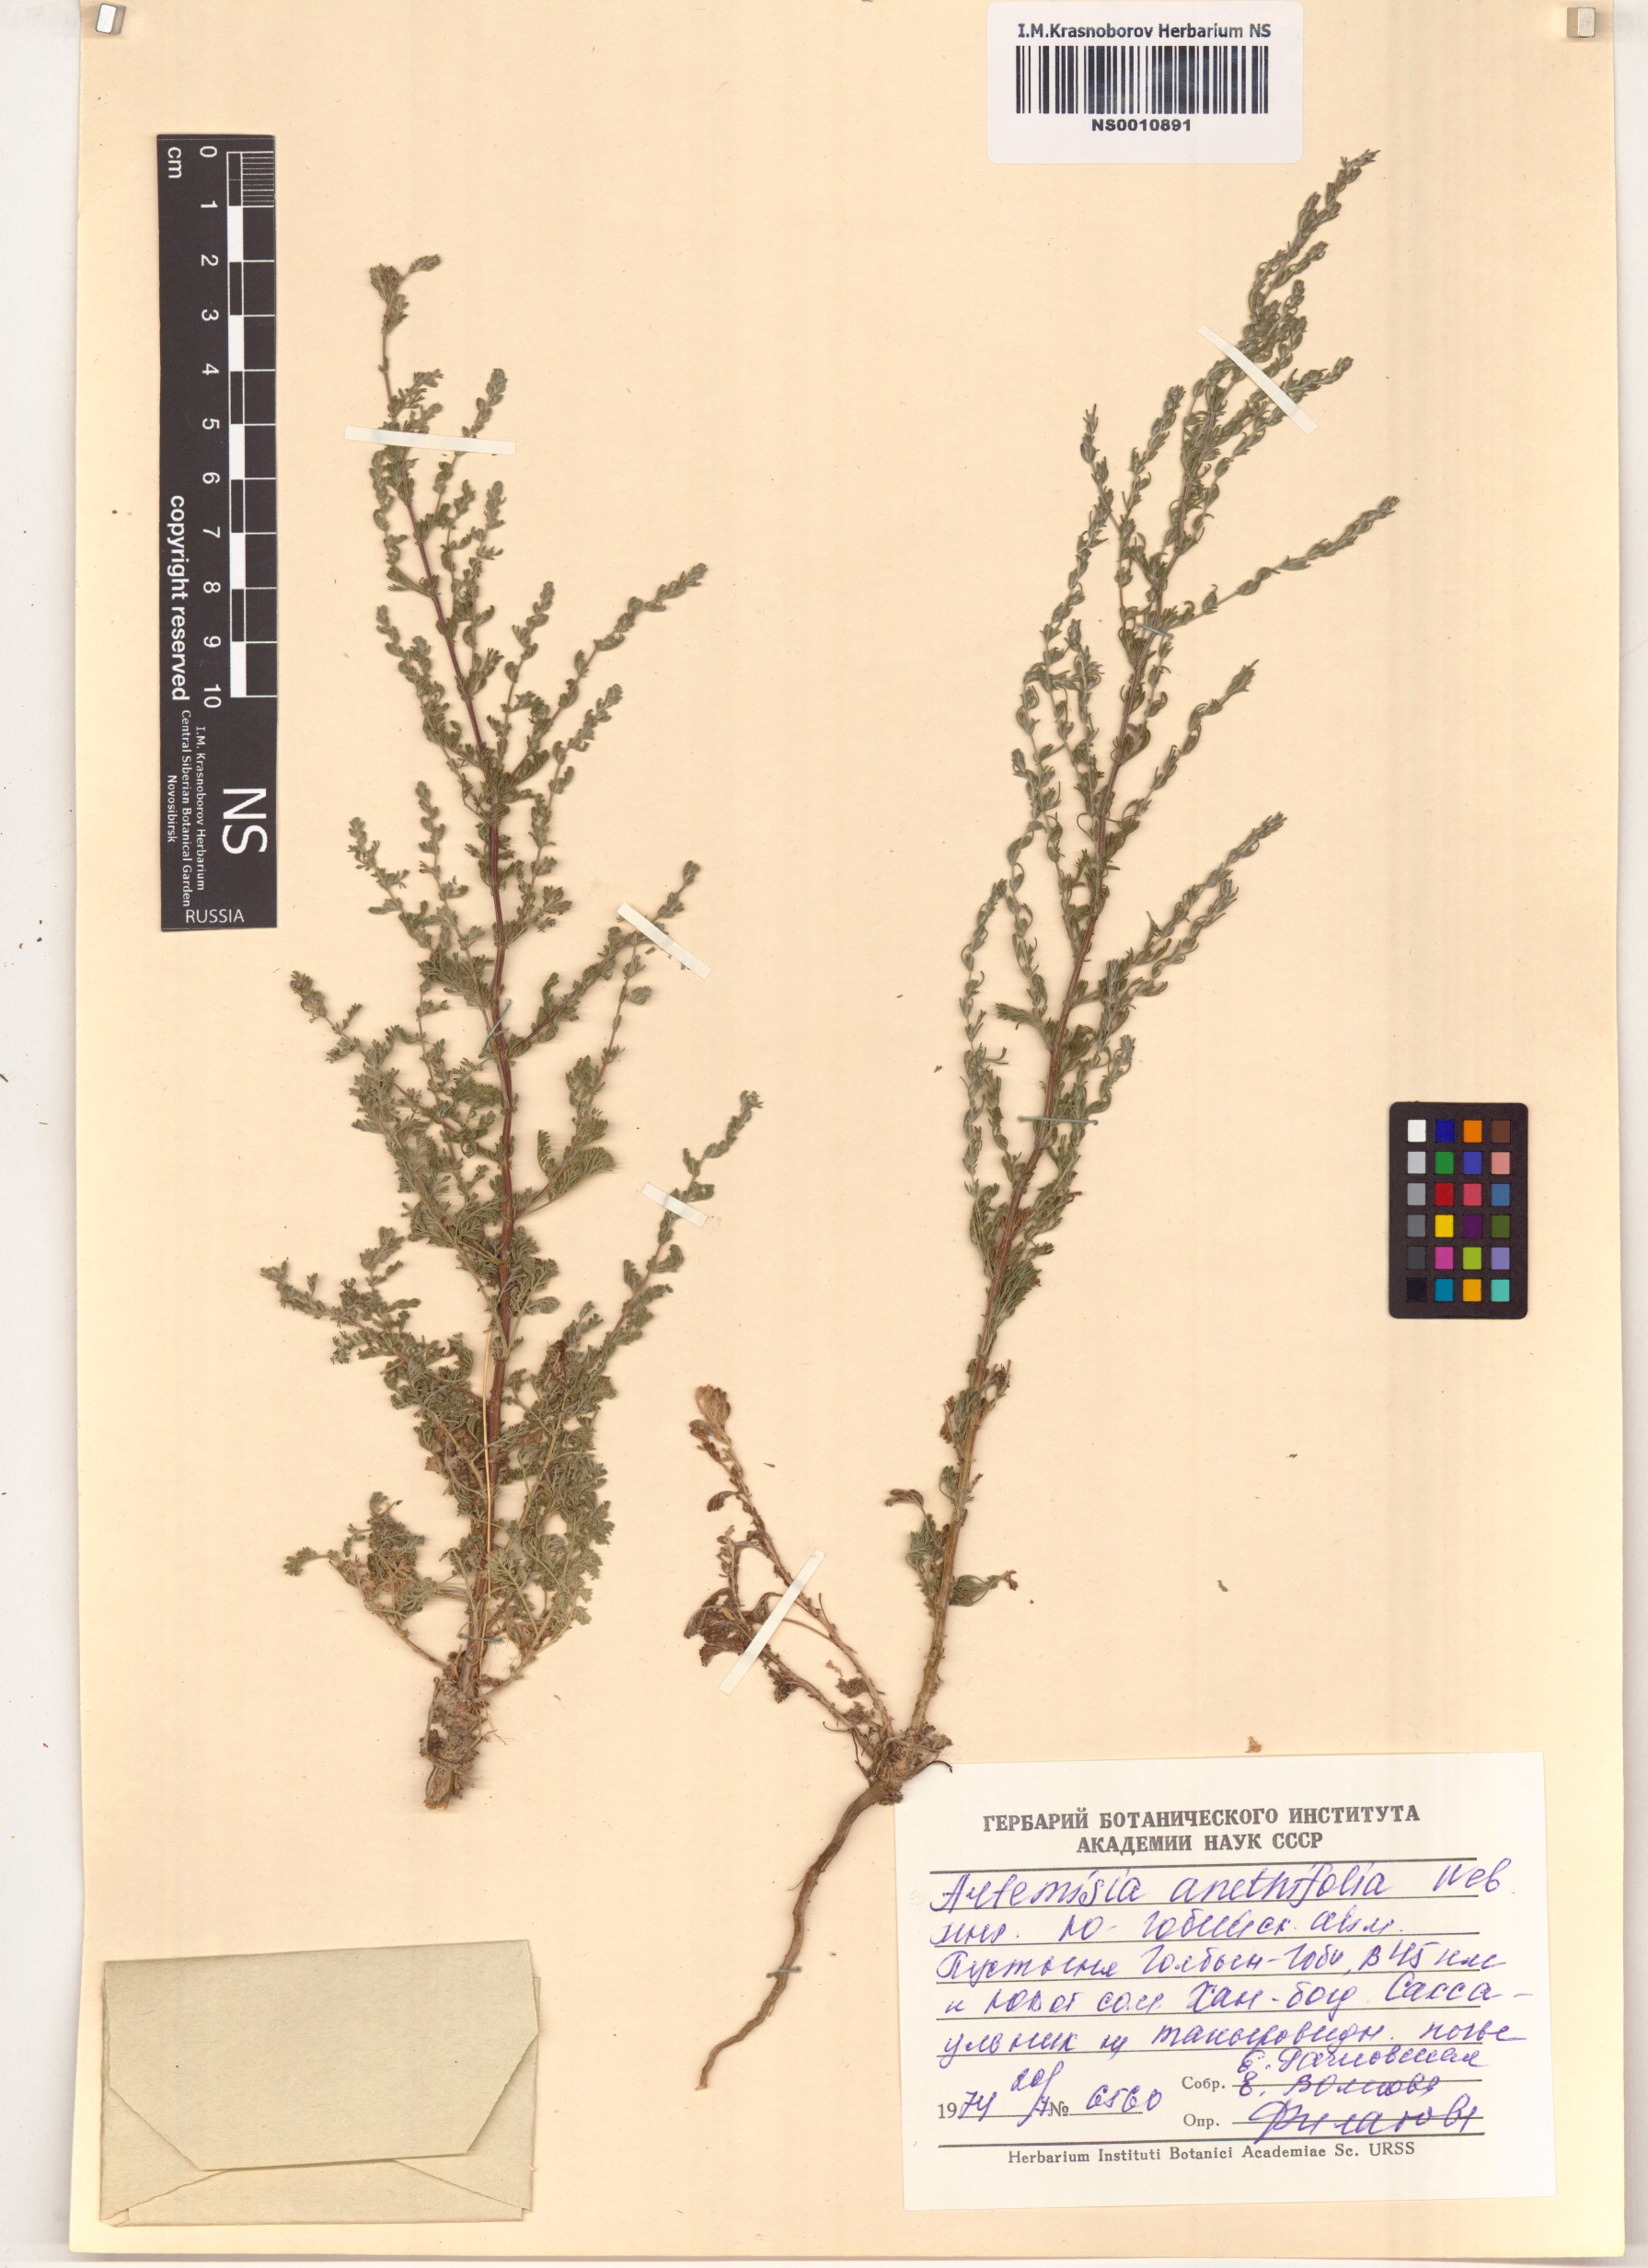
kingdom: Plantae
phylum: Tracheophyta
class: Magnoliopsida
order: Asterales
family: Asteraceae
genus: Artemisia
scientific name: Artemisia anethifolia
